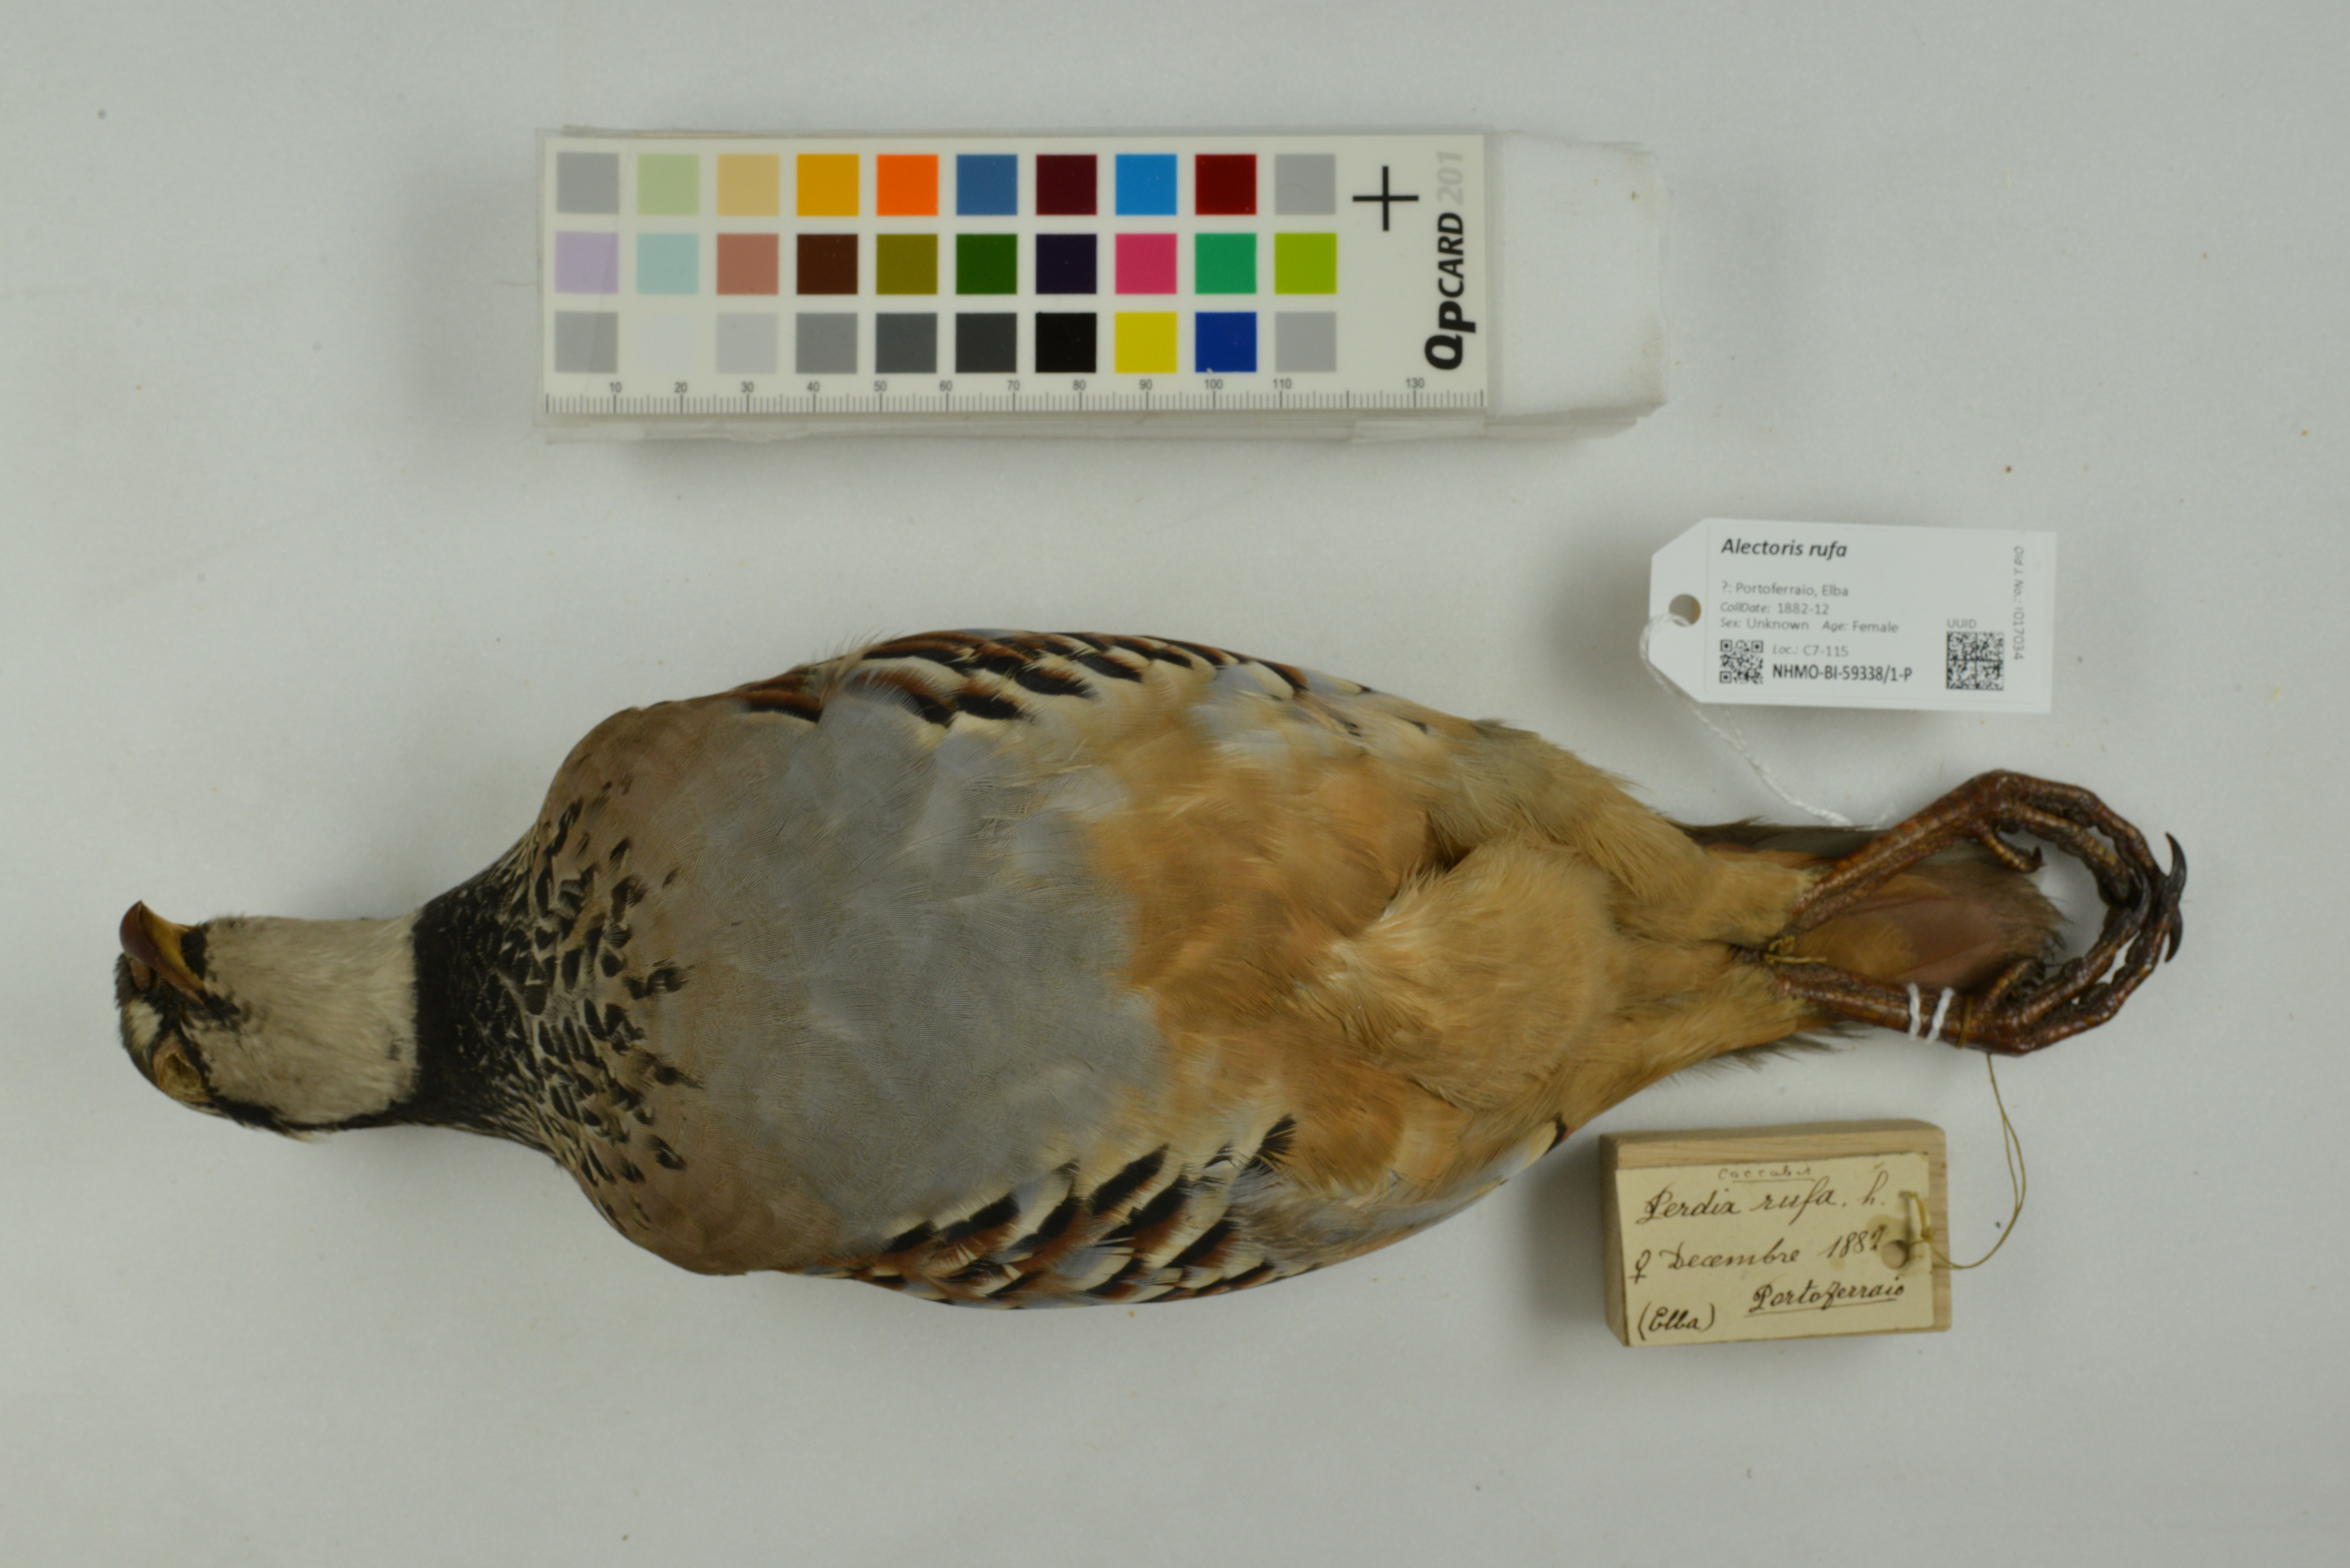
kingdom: Animalia
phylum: Chordata
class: Aves
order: Galliformes
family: Phasianidae
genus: Alectoris
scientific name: Alectoris rufa
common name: Red-legged partridge
